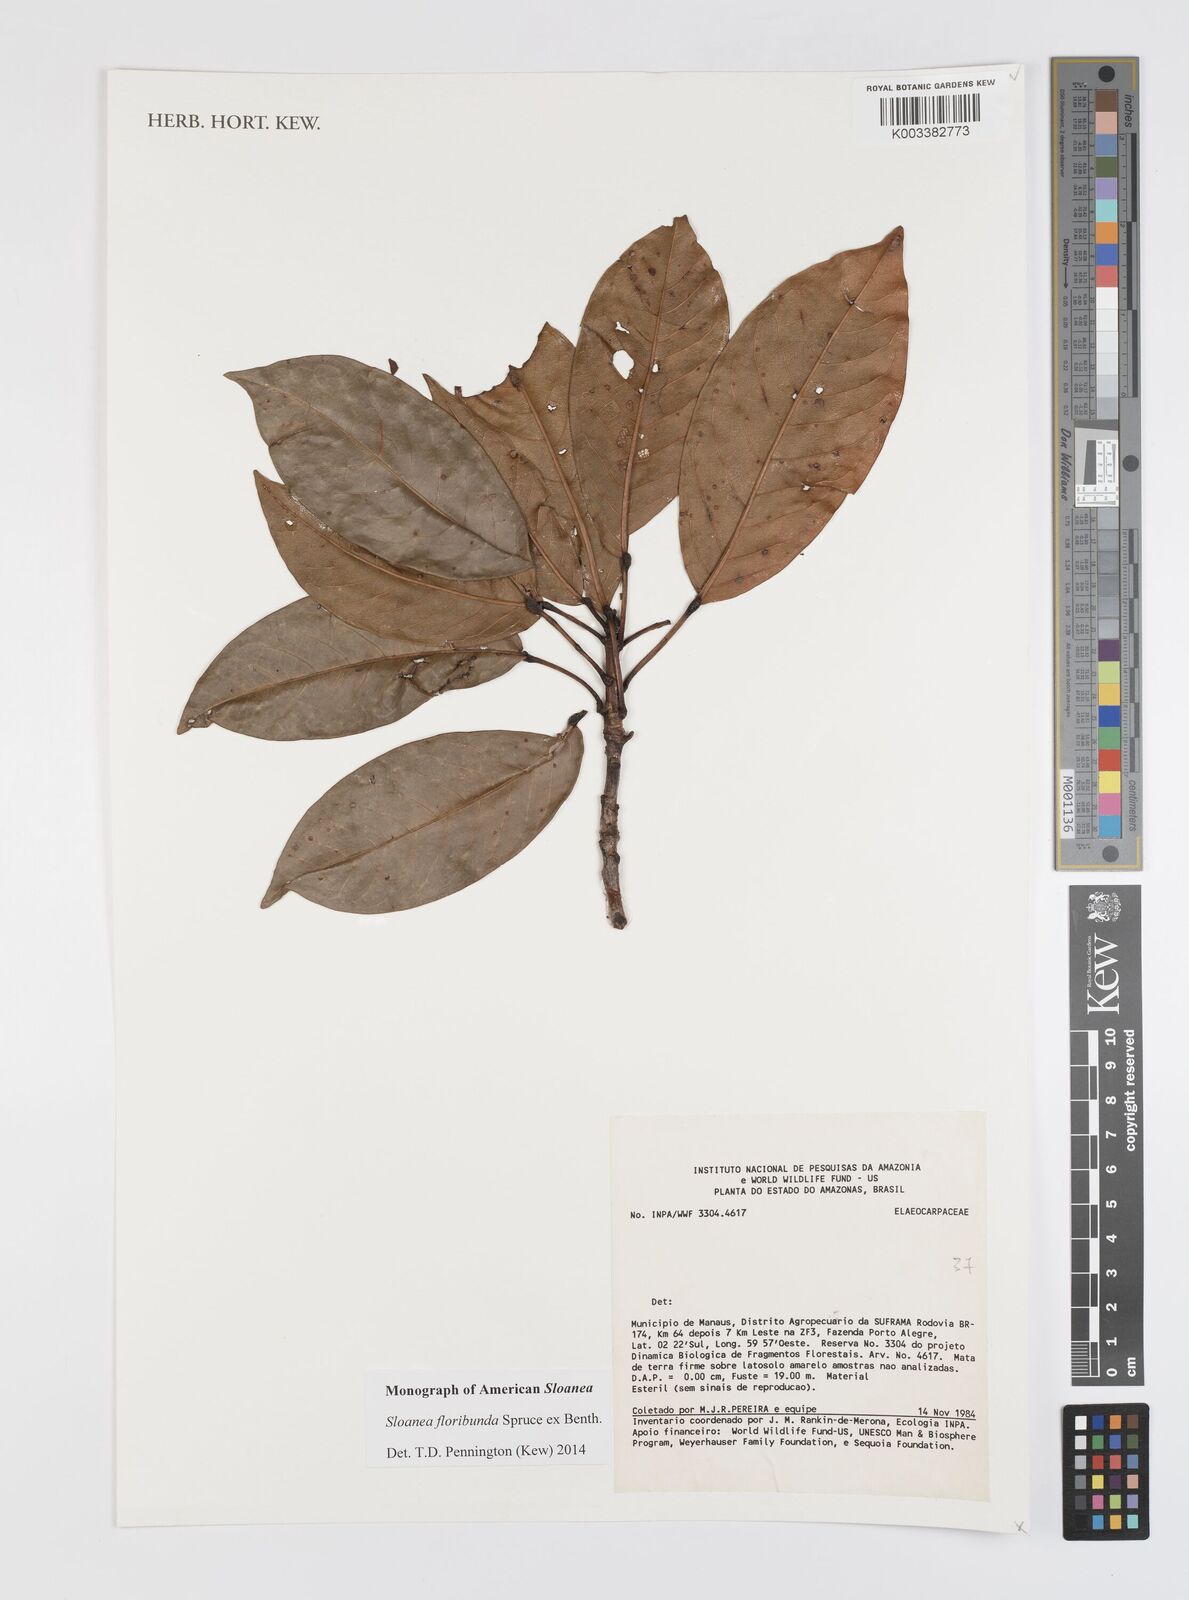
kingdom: Plantae
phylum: Tracheophyta
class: Magnoliopsida
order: Oxalidales
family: Elaeocarpaceae
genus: Sloanea
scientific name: Sloanea floribunda
